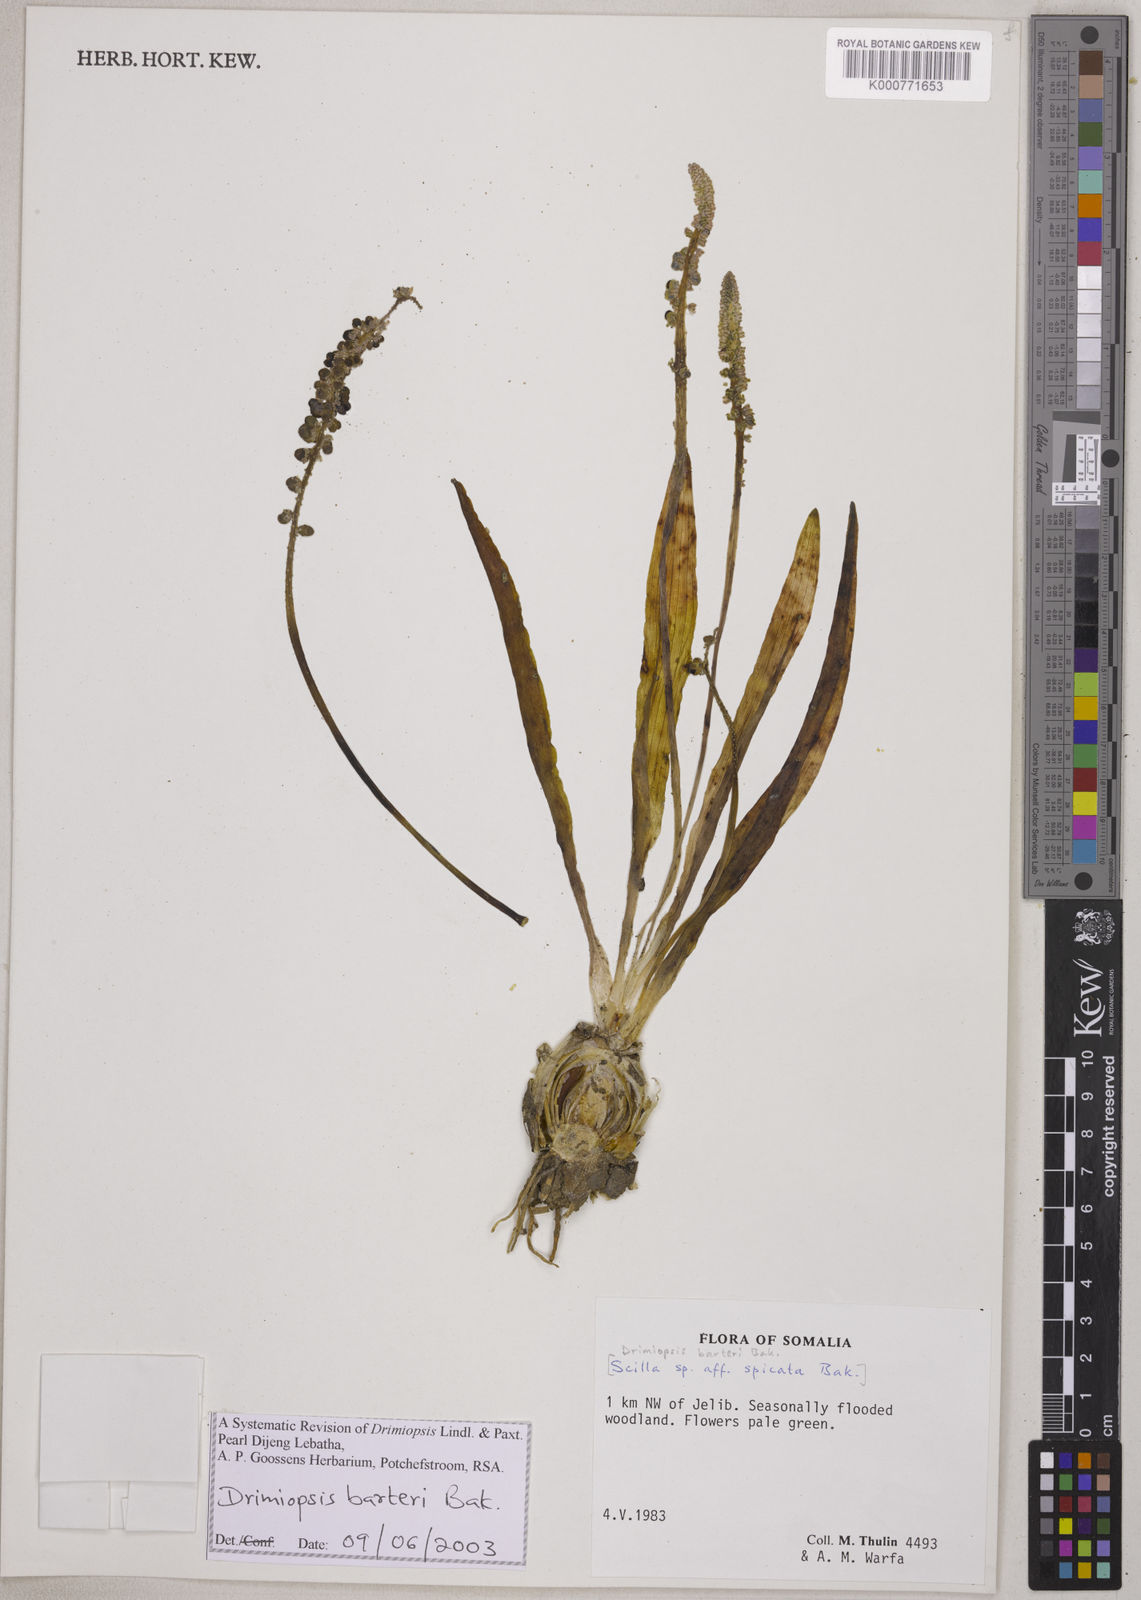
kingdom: Plantae
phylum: Tracheophyta
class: Liliopsida
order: Asparagales
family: Asparagaceae
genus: Drimiopsis
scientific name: Drimiopsis barteri
